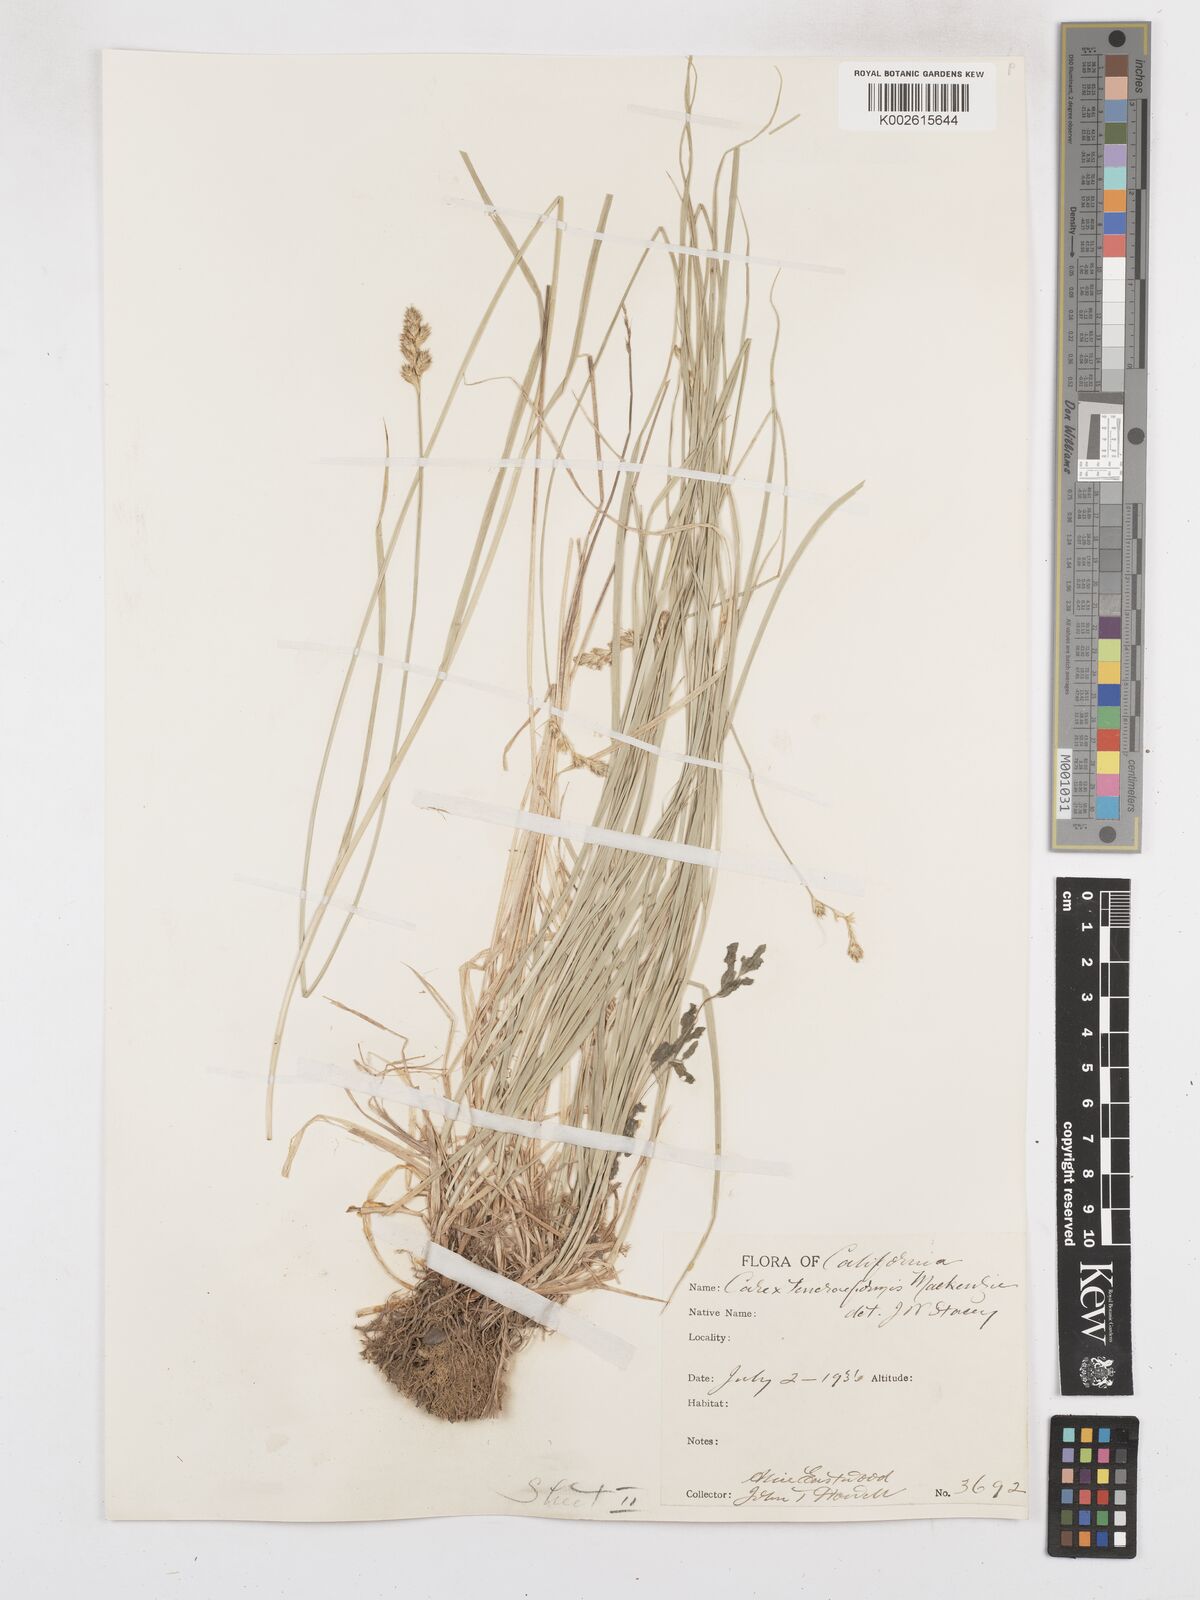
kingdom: Plantae
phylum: Tracheophyta
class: Liliopsida
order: Poales
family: Cyperaceae
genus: Carex
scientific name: Carex subfusca
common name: Brown sedge
